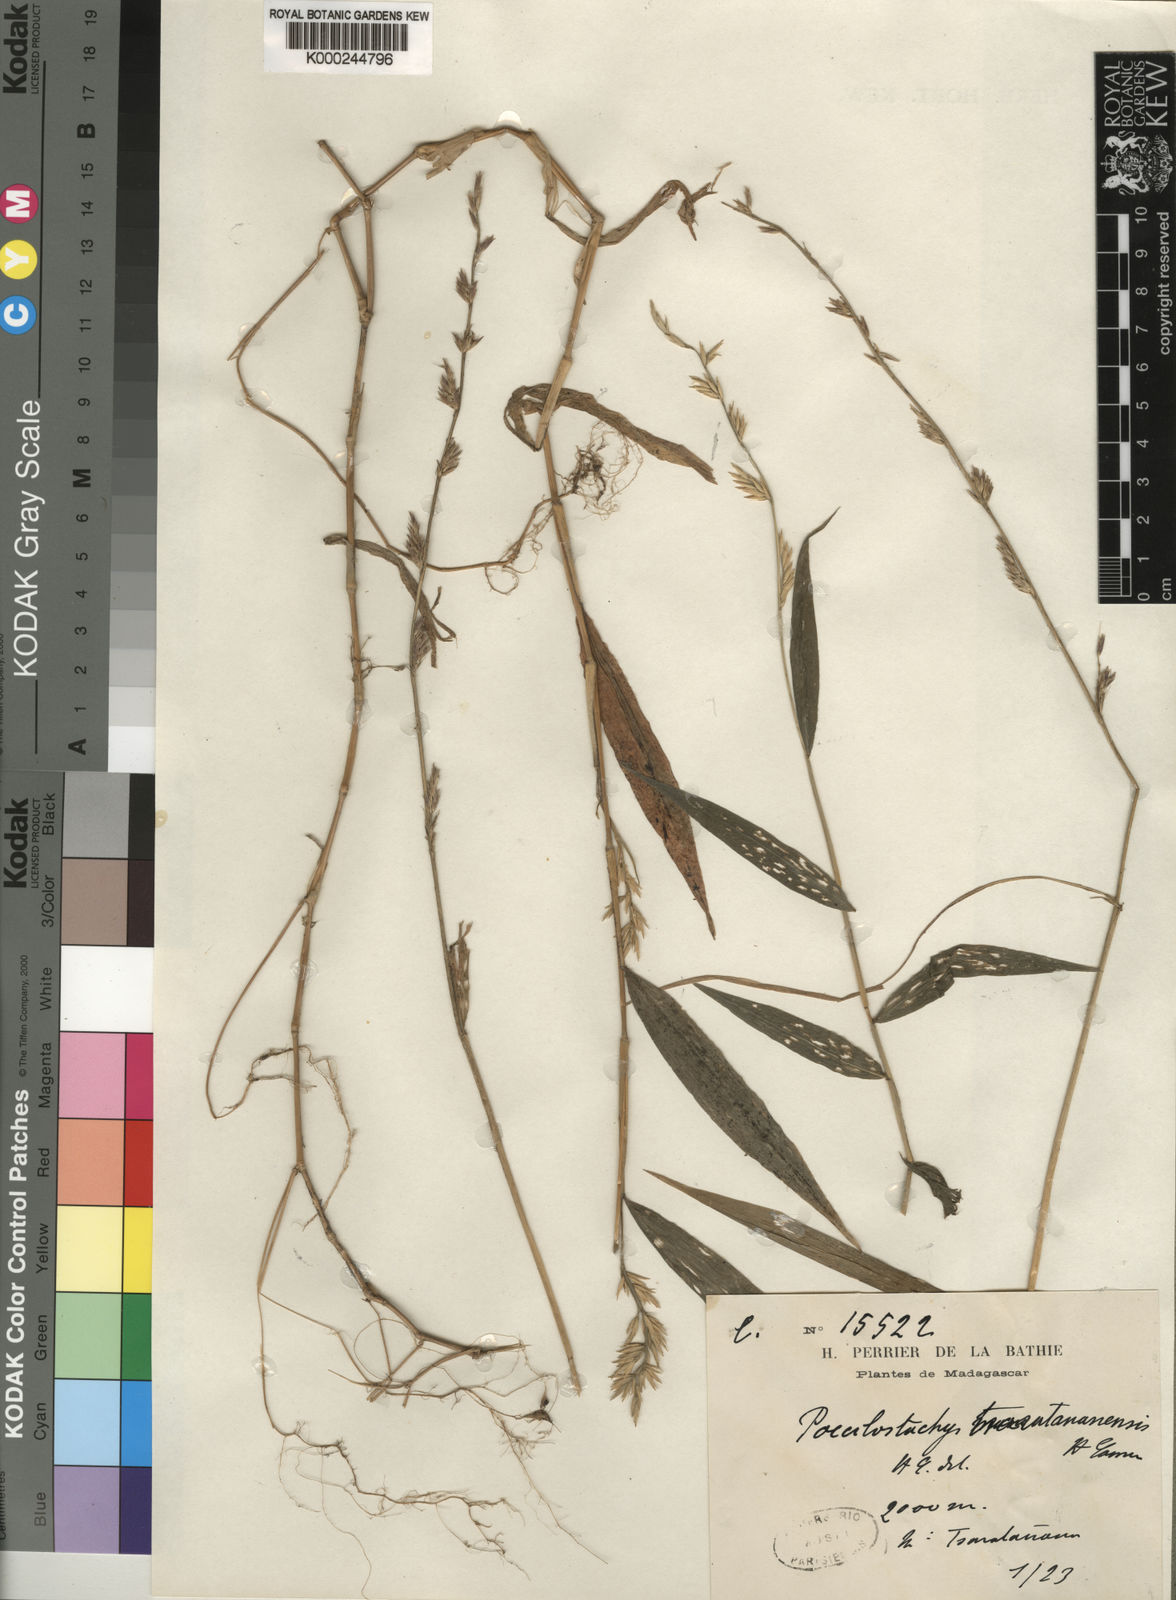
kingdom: Plantae
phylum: Tracheophyta
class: Liliopsida
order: Poales
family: Poaceae
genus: Poecilostachys
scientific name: Poecilostachys tsaratananensis
